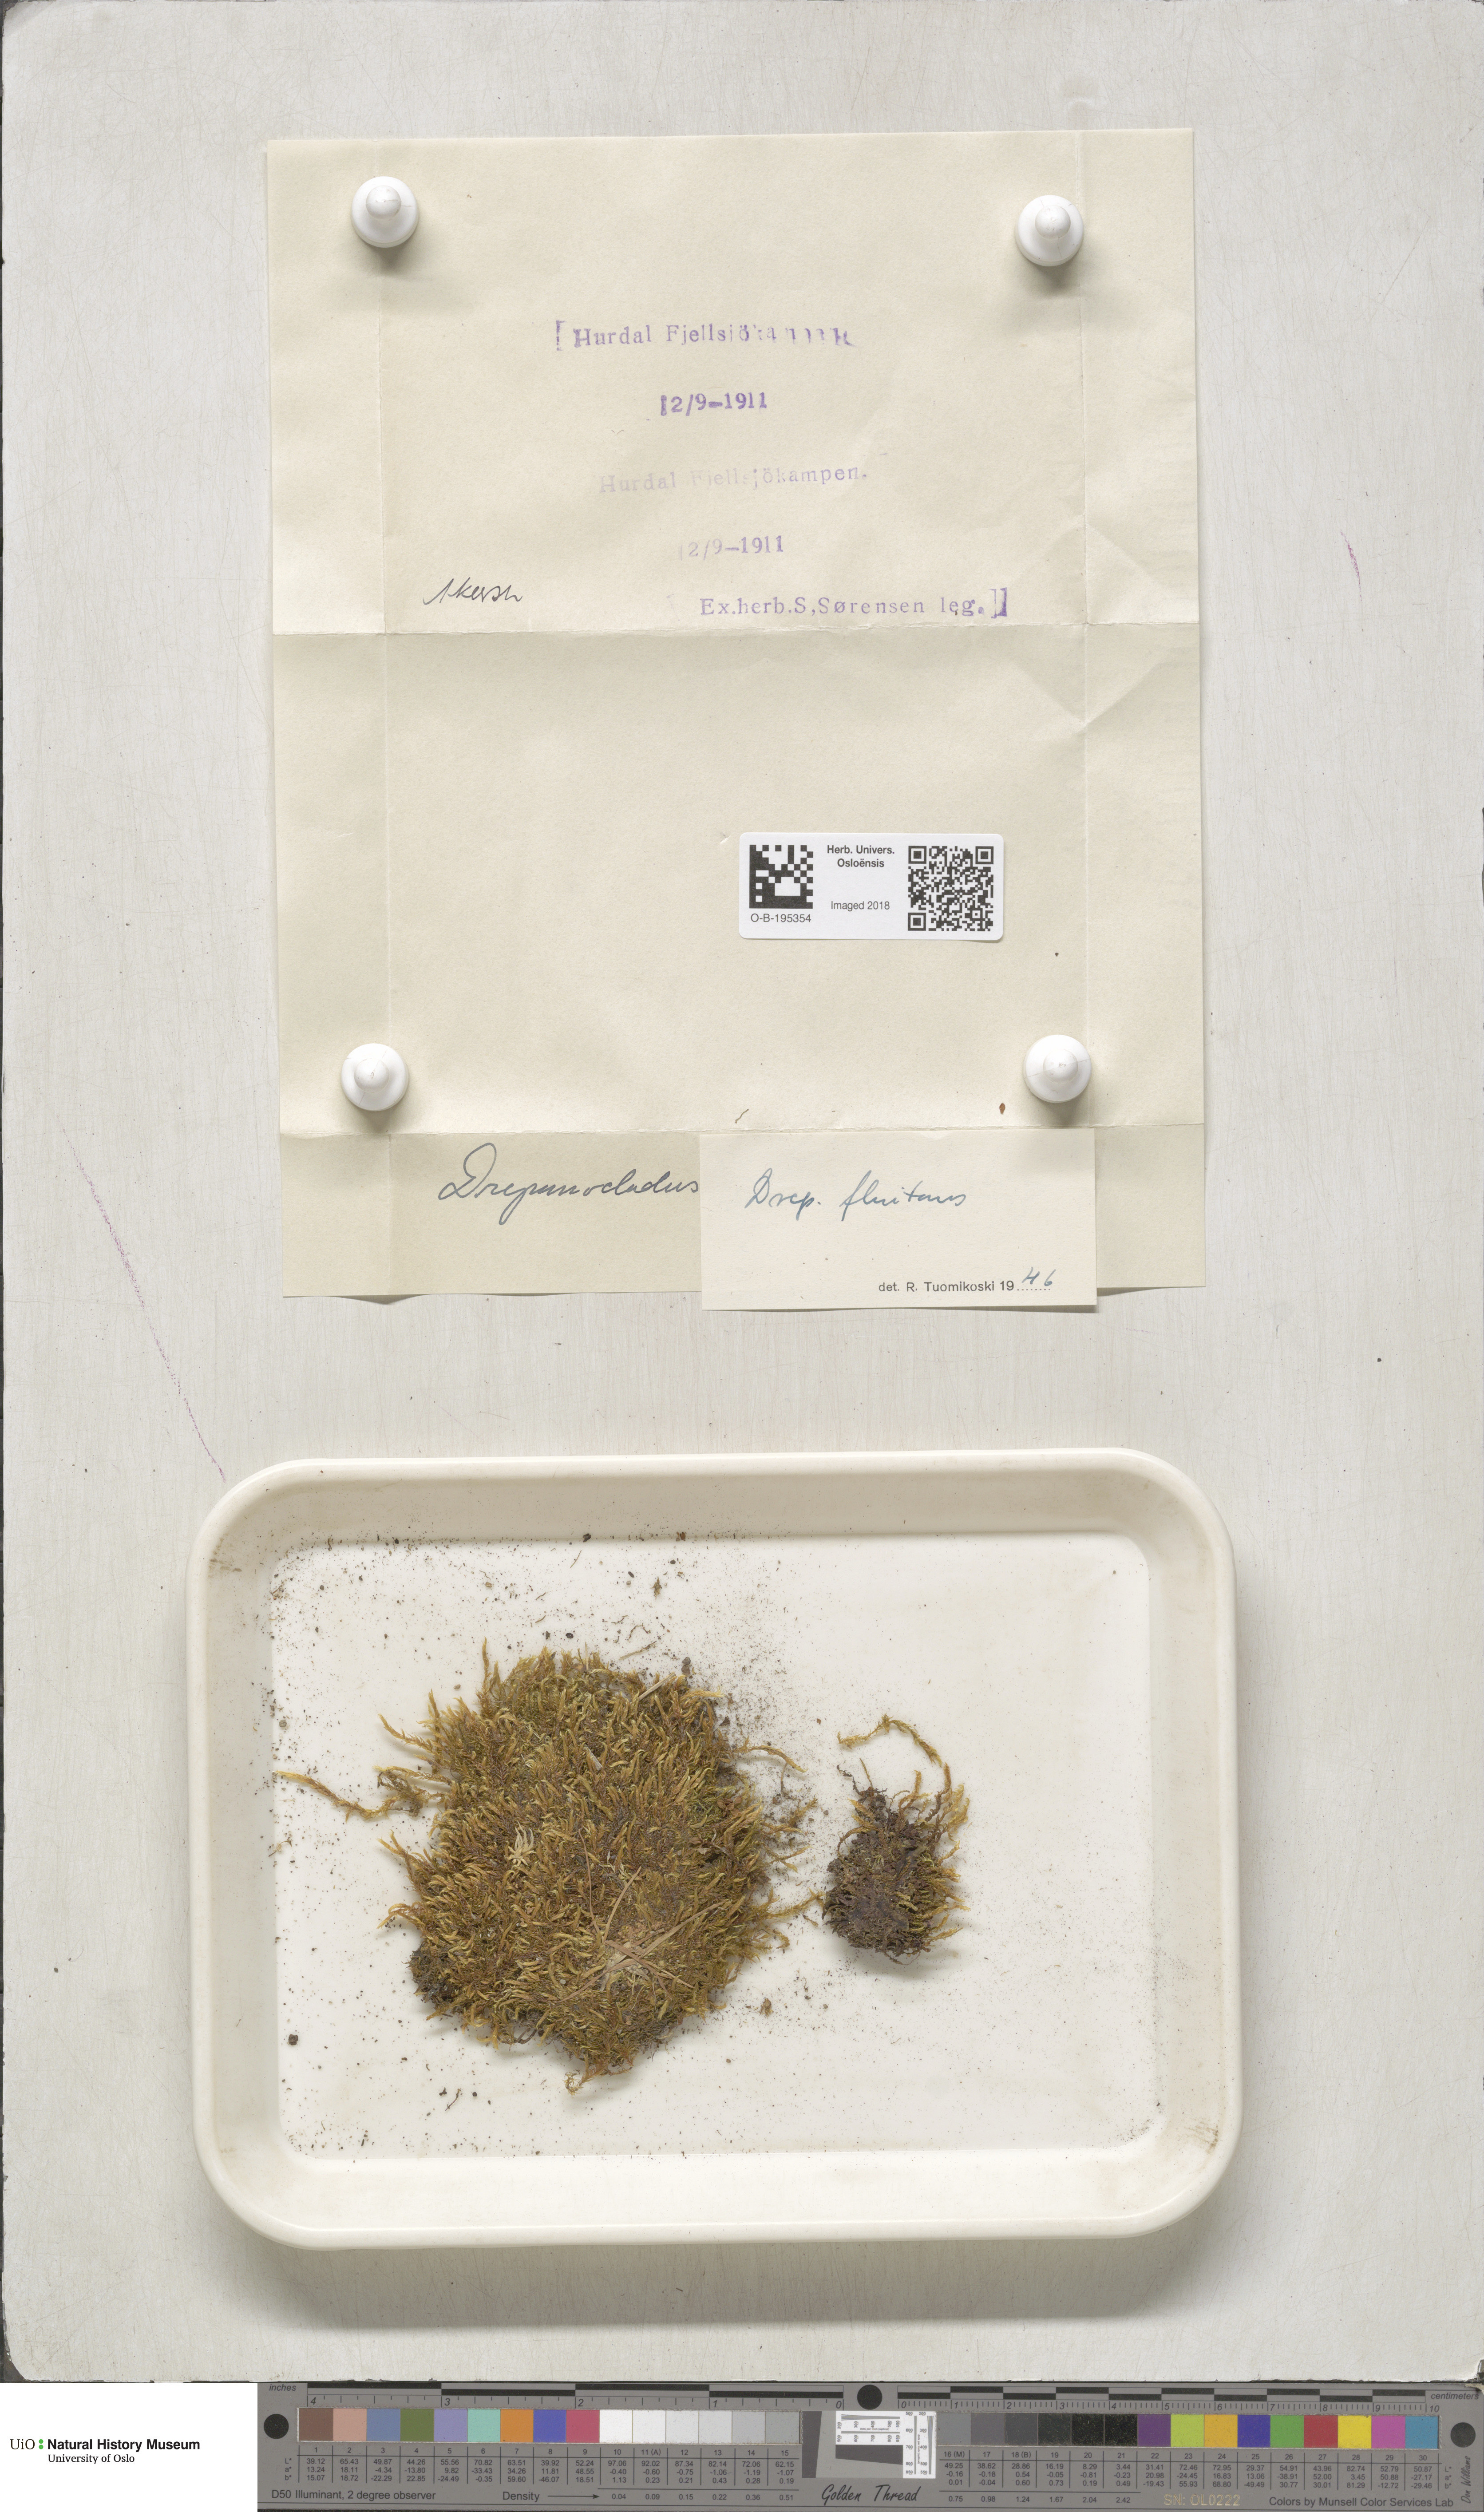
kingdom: Plantae
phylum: Bryophyta
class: Bryopsida
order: Hypnales
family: Calliergonaceae
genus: Warnstorfia
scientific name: Warnstorfia fluitans
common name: Floating hook moss
